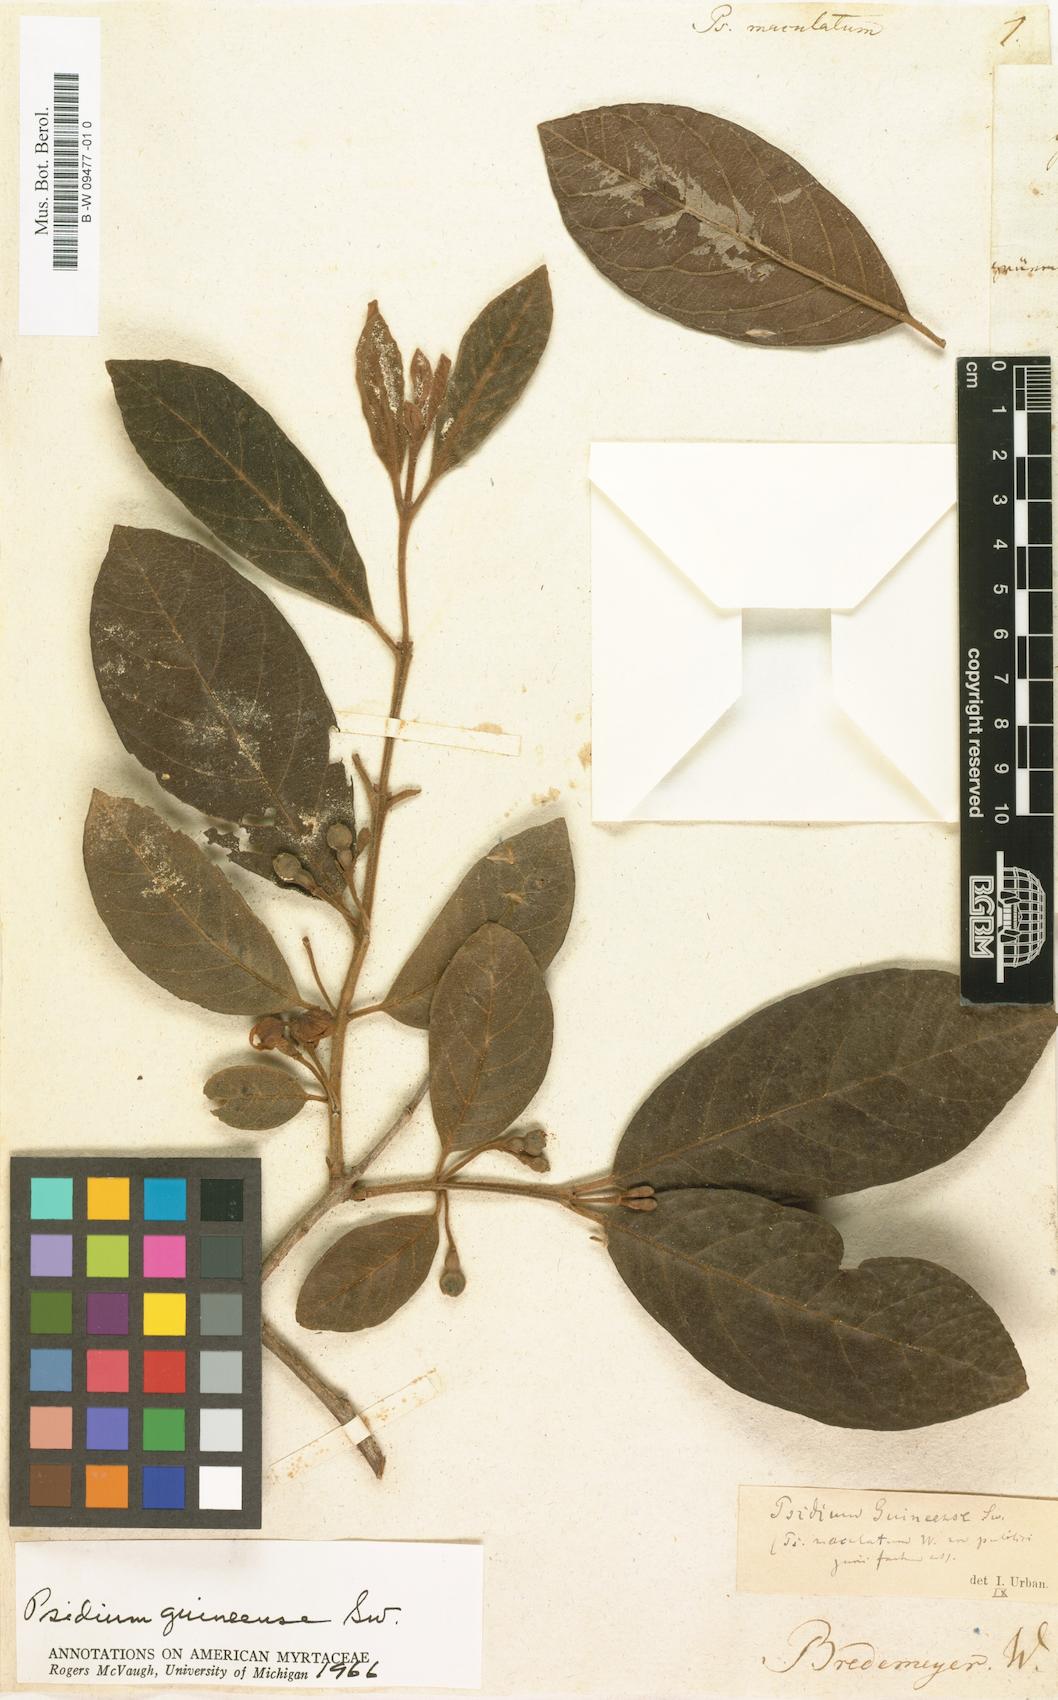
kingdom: Plantae
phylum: Tracheophyta
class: Magnoliopsida
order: Myrtales
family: Myrtaceae
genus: Psidium
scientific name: Psidium
